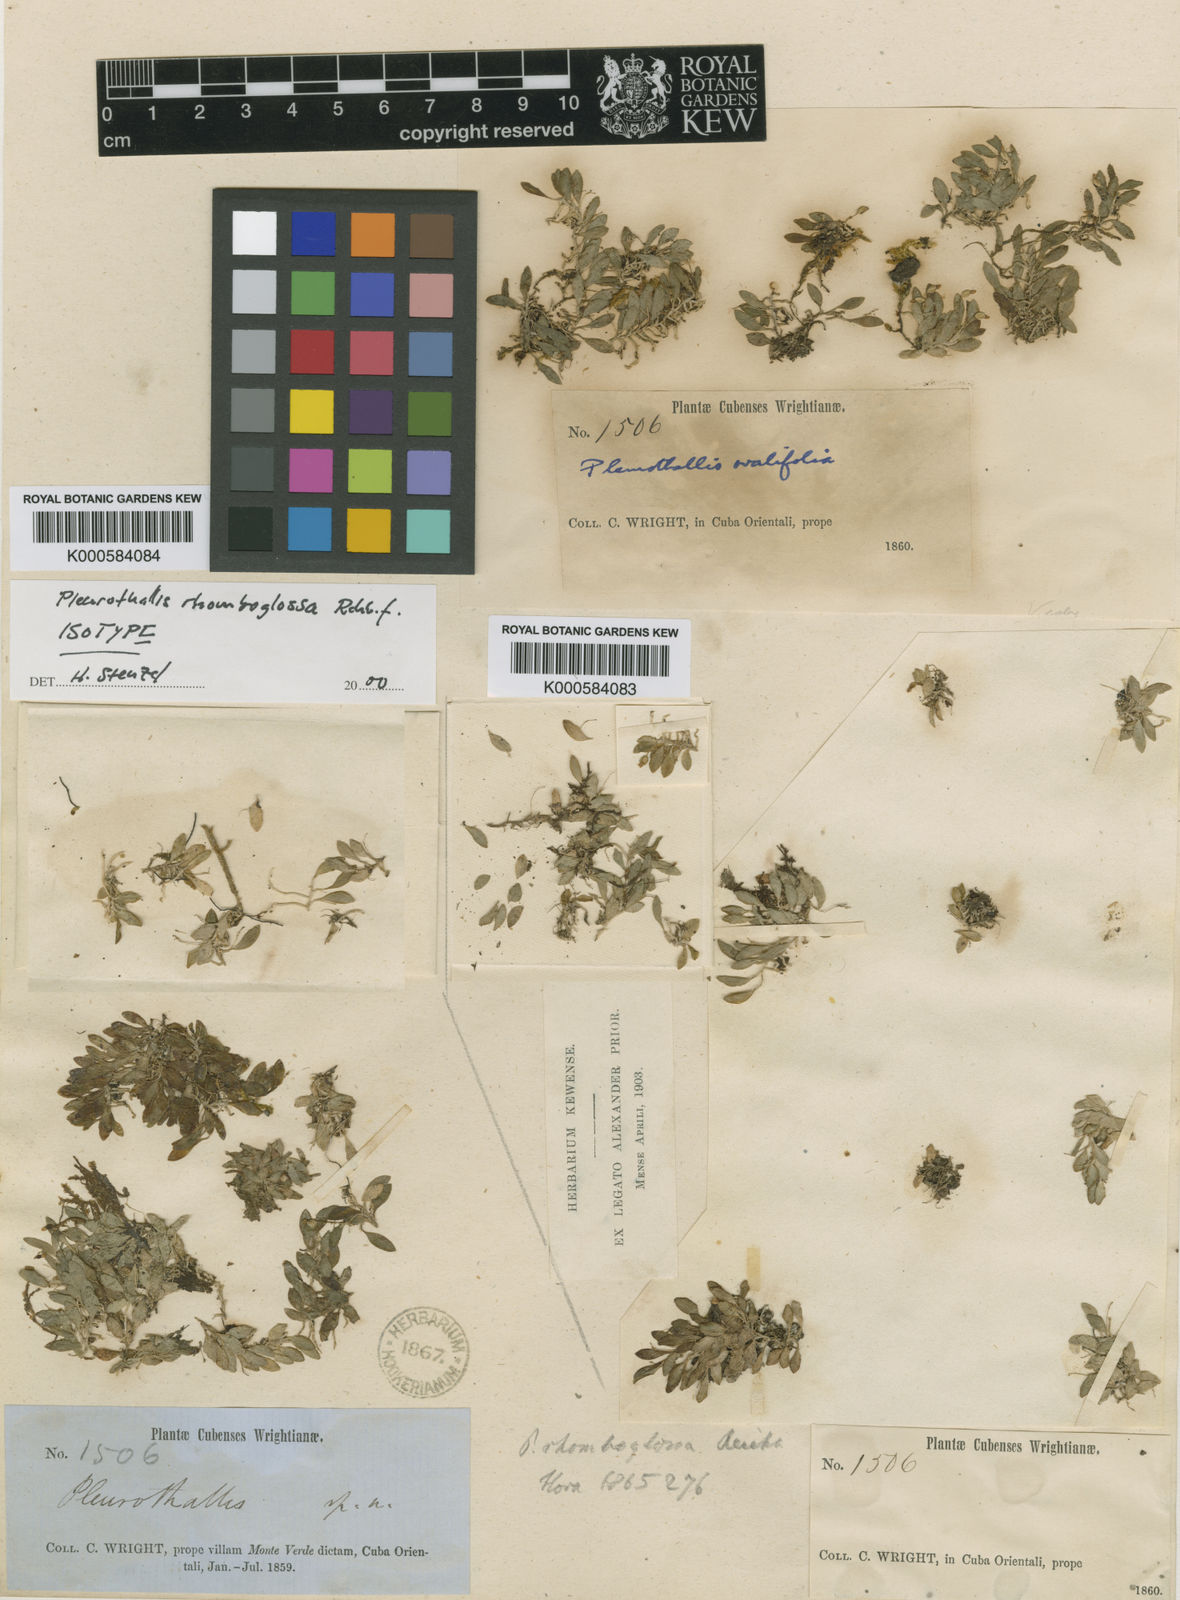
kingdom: Plantae
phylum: Tracheophyta
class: Liliopsida
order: Asparagales
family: Orchidaceae
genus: Platystele
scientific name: Platystele ovalifolia
